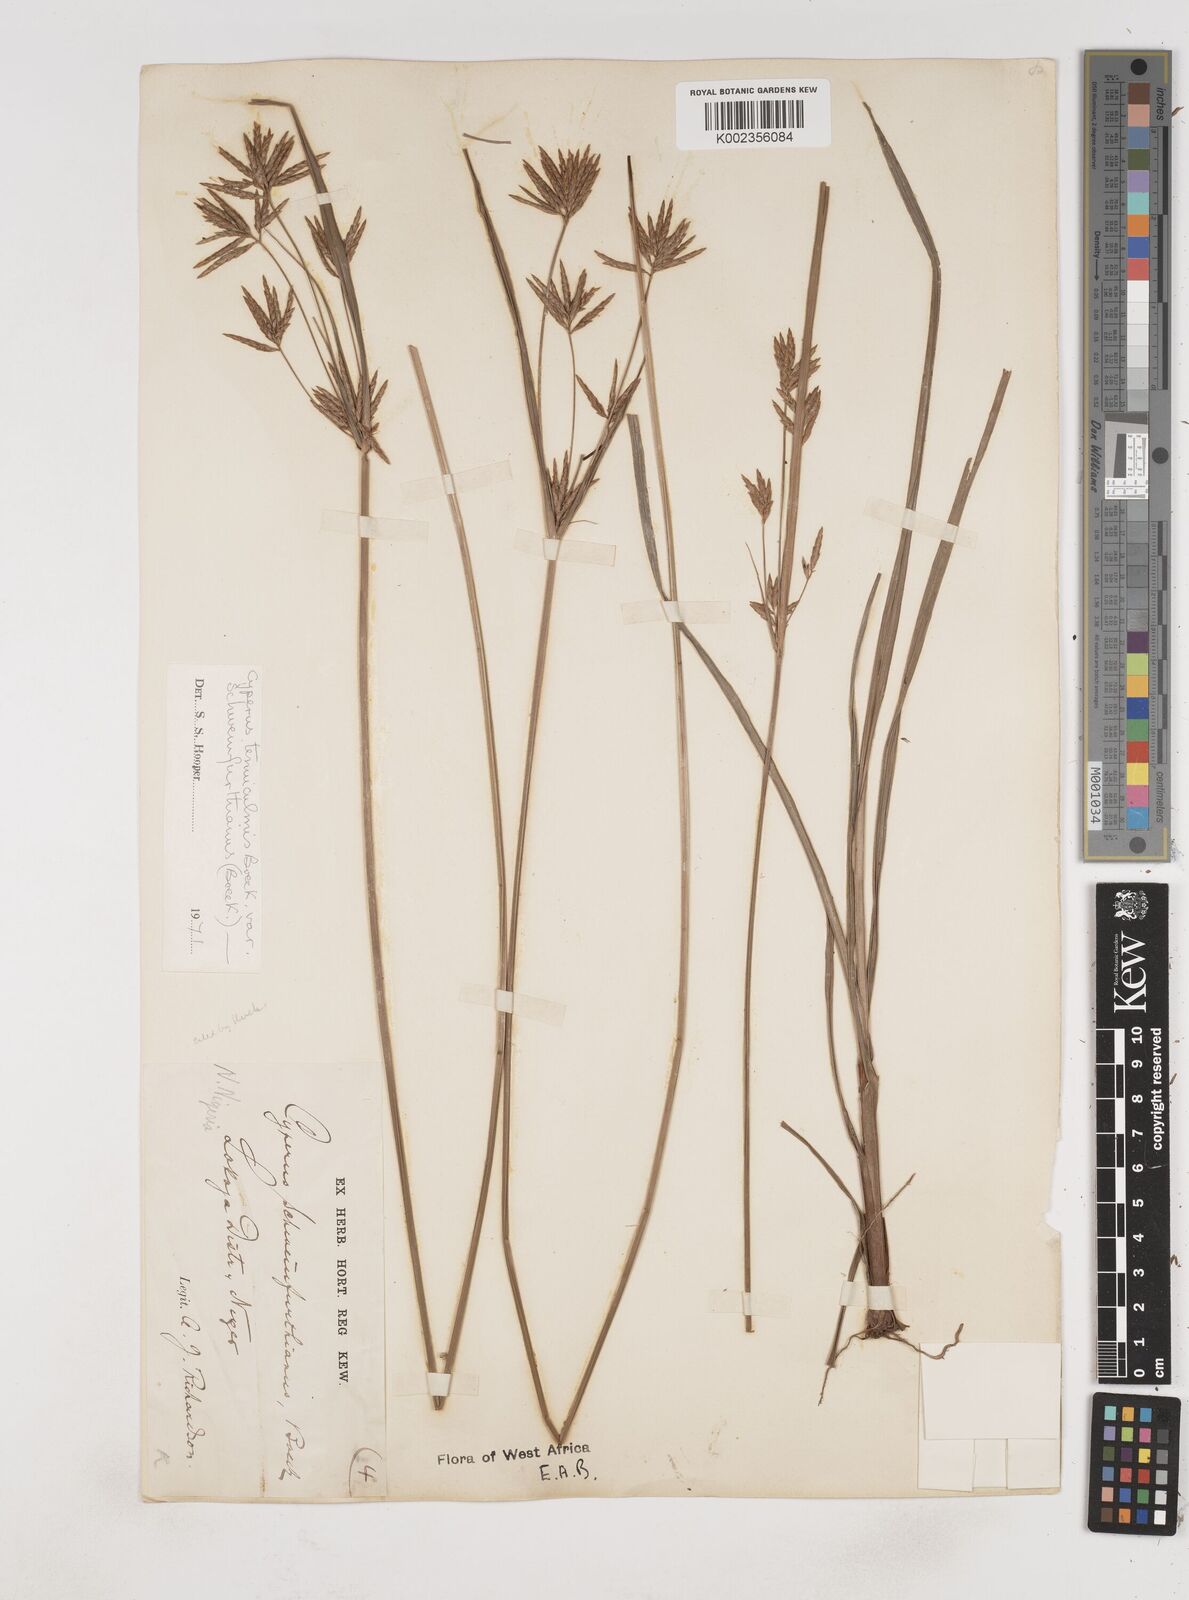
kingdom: Plantae
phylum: Tracheophyta
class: Liliopsida
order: Poales
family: Cyperaceae
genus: Cyperus
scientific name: Cyperus tenuiculmis
